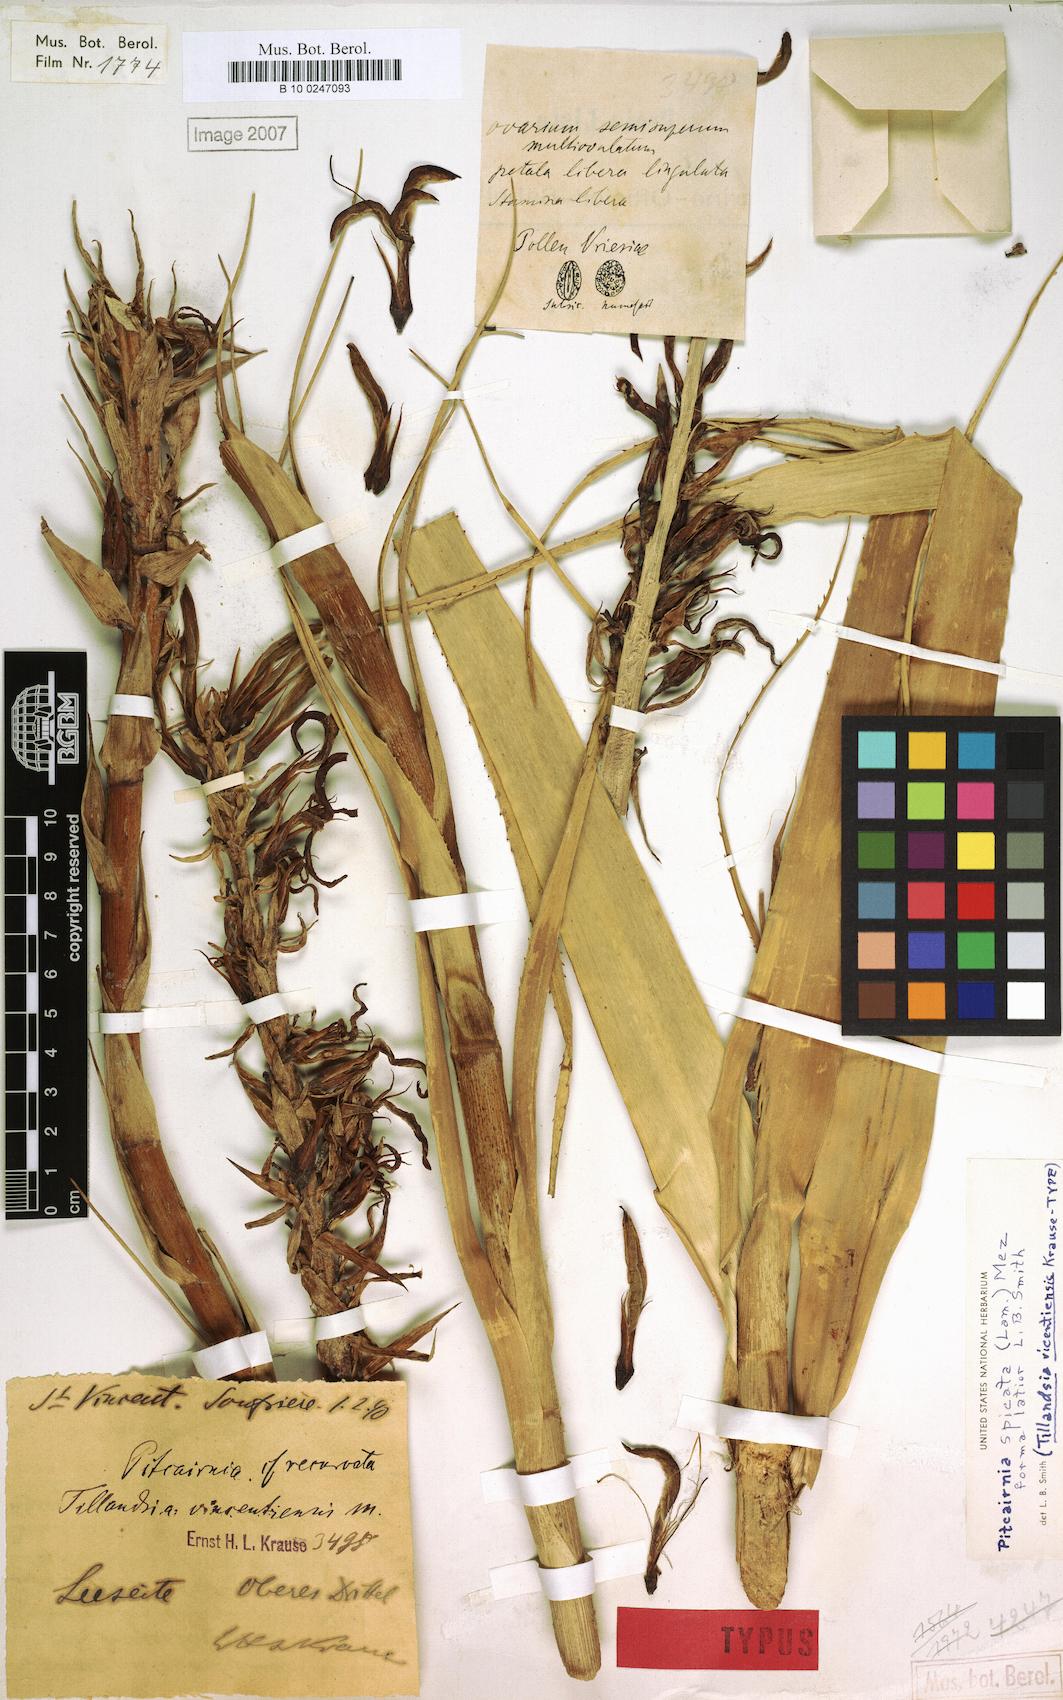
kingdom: Plantae
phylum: Tracheophyta
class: Liliopsida
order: Poales
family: Bromeliaceae
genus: Pitcairnia
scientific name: Pitcairnia bifrons
